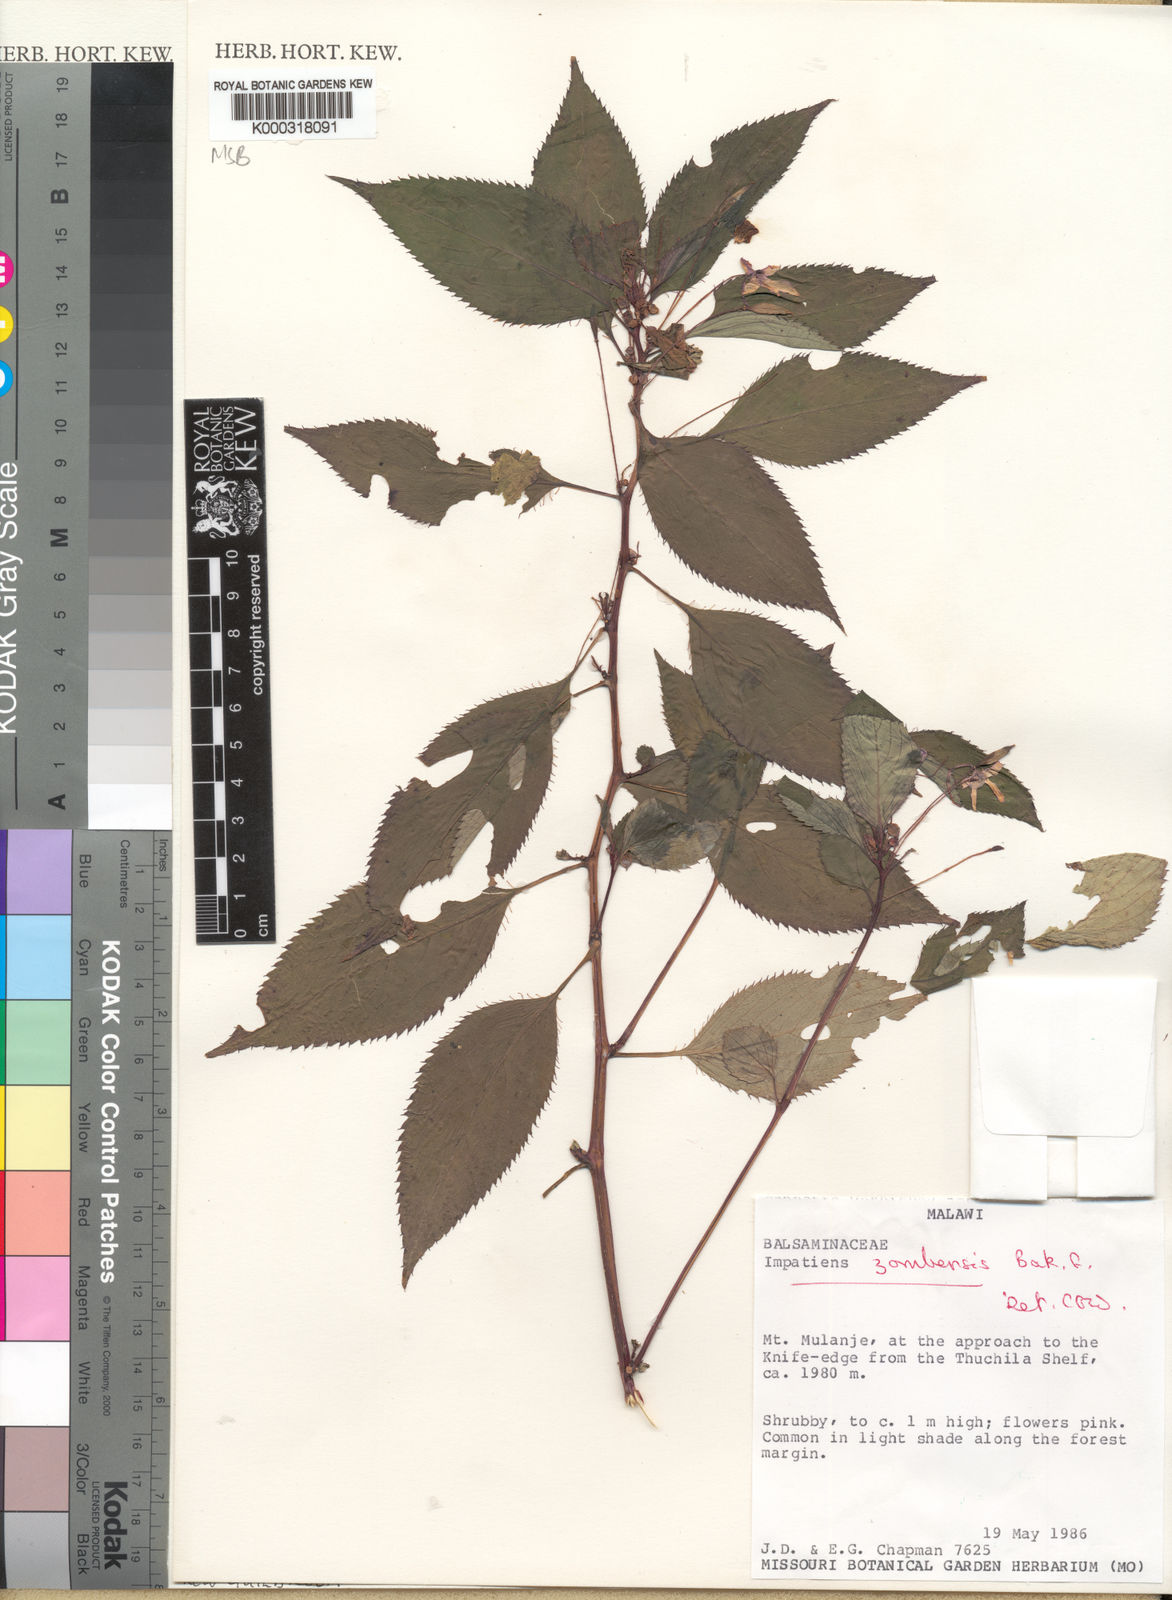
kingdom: Plantae
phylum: Tracheophyta
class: Magnoliopsida
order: Ericales
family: Balsaminaceae
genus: Impatiens
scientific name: Impatiens zombensis
